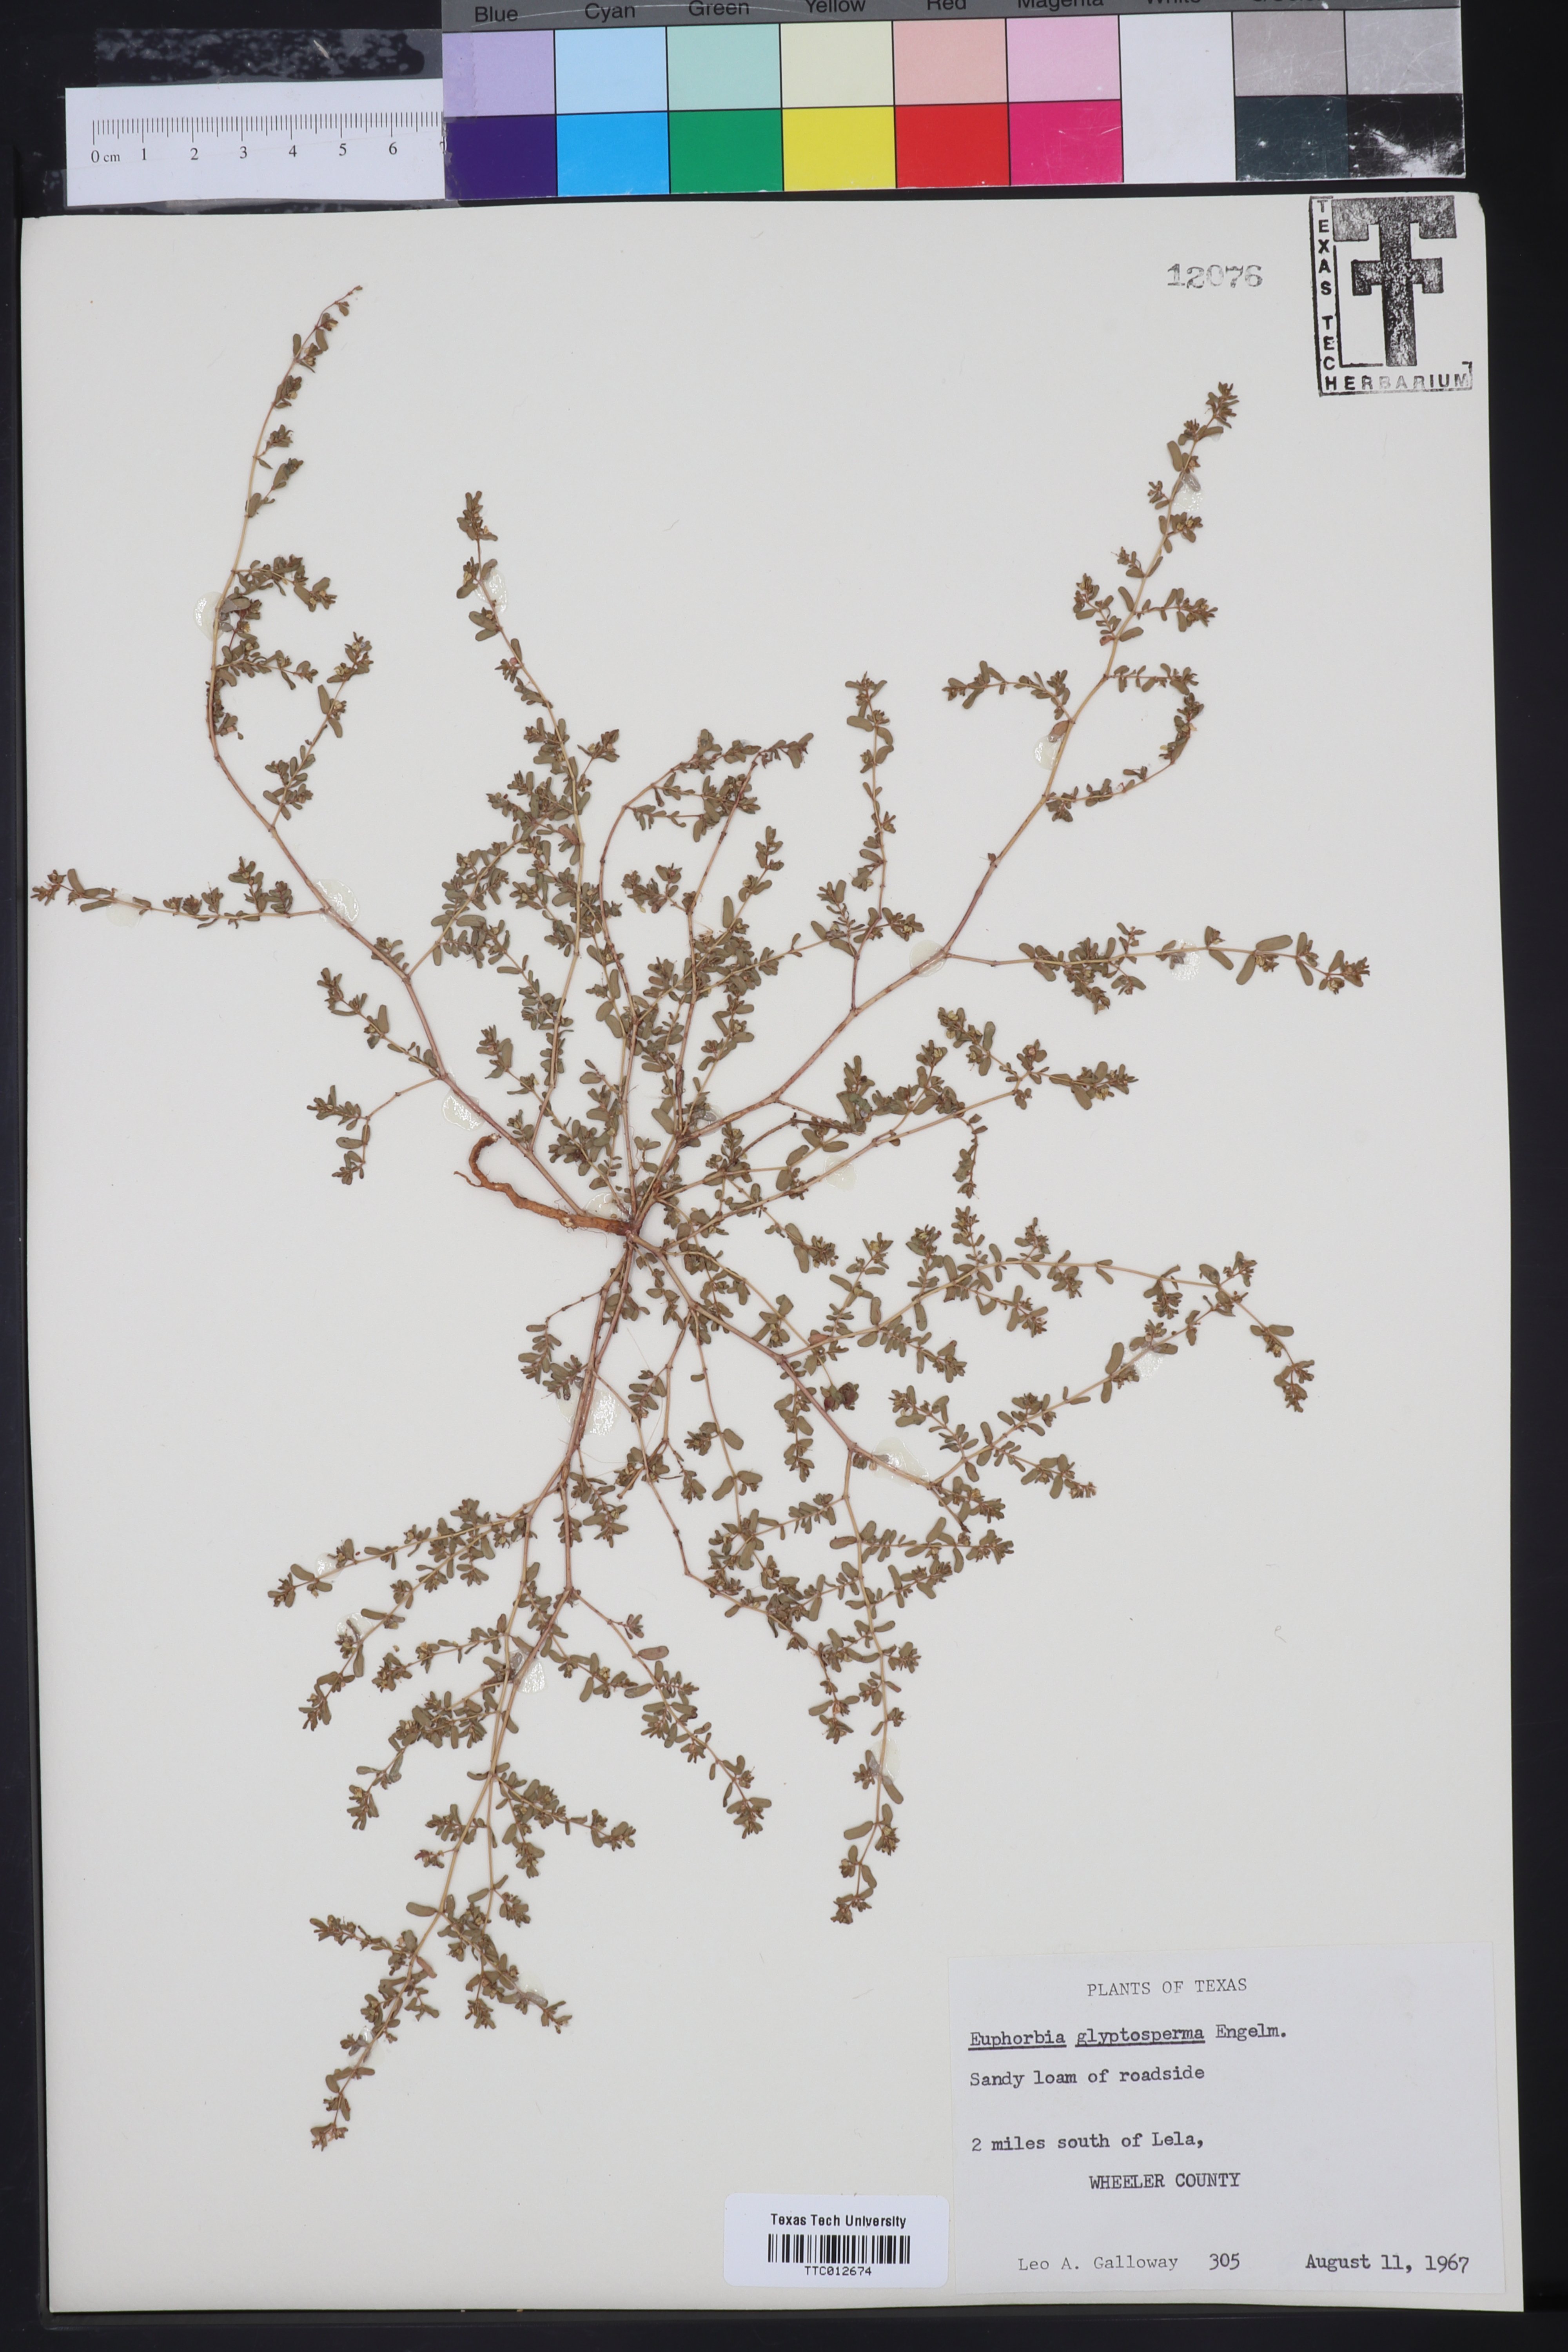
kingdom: Plantae
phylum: Tracheophyta
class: Magnoliopsida
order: Malpighiales
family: Euphorbiaceae
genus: Euphorbia
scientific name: Euphorbia glyptosperma
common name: Corrugate-seeded spurge
